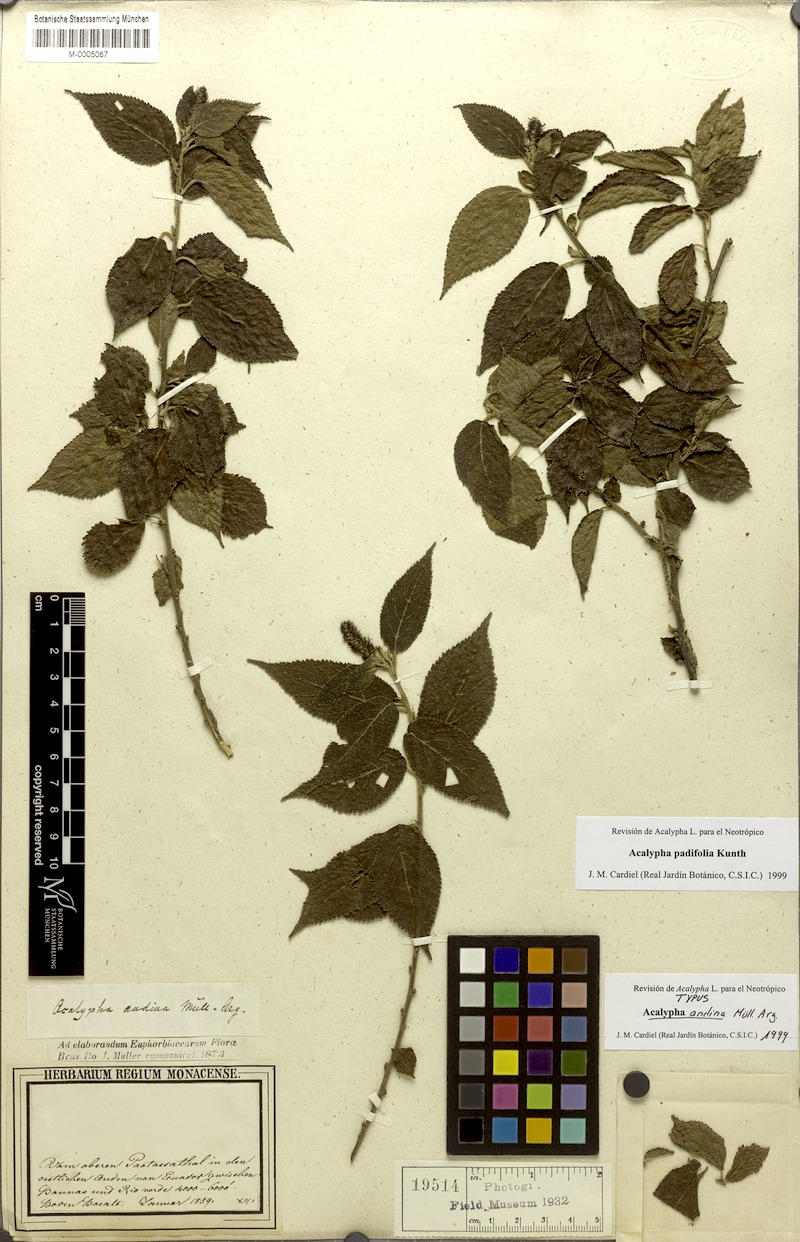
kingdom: Plantae
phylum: Tracheophyta
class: Magnoliopsida
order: Malpighiales
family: Euphorbiaceae
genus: Acalypha
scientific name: Acalypha padifolia
